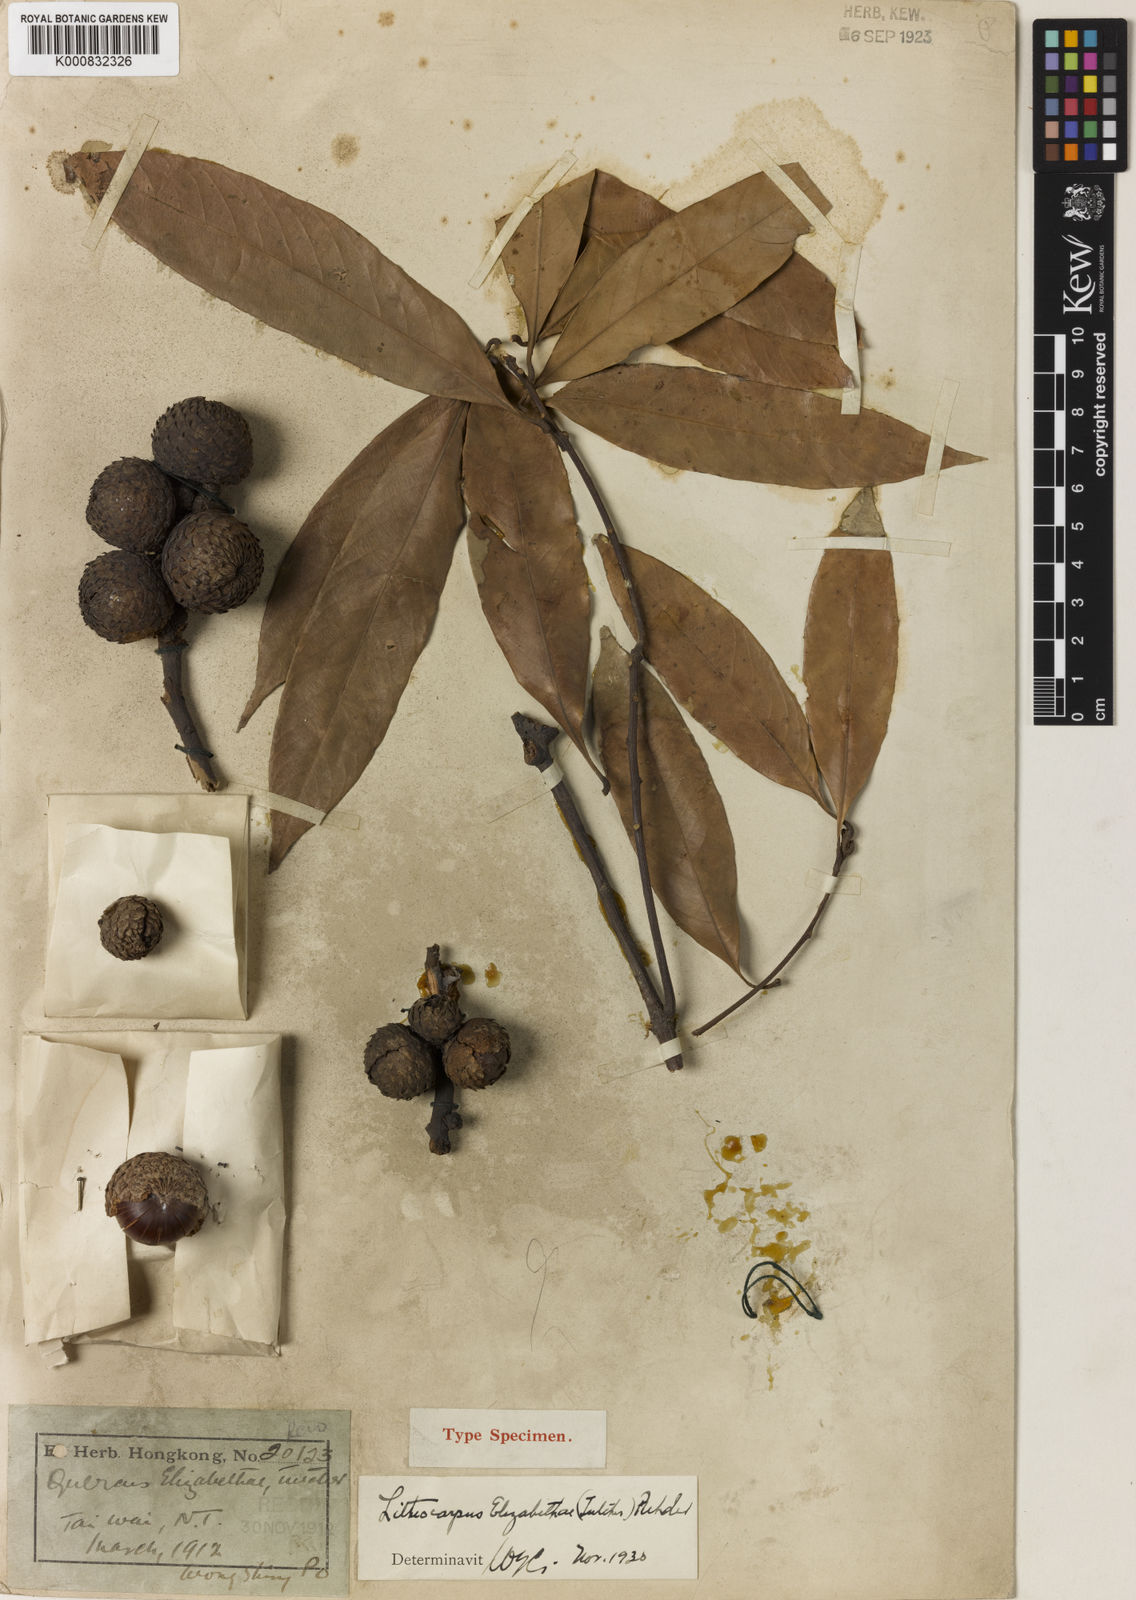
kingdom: Plantae
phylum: Tracheophyta
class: Magnoliopsida
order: Fagales
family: Fagaceae
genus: Lithocarpus
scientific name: Lithocarpus elizabethiae
